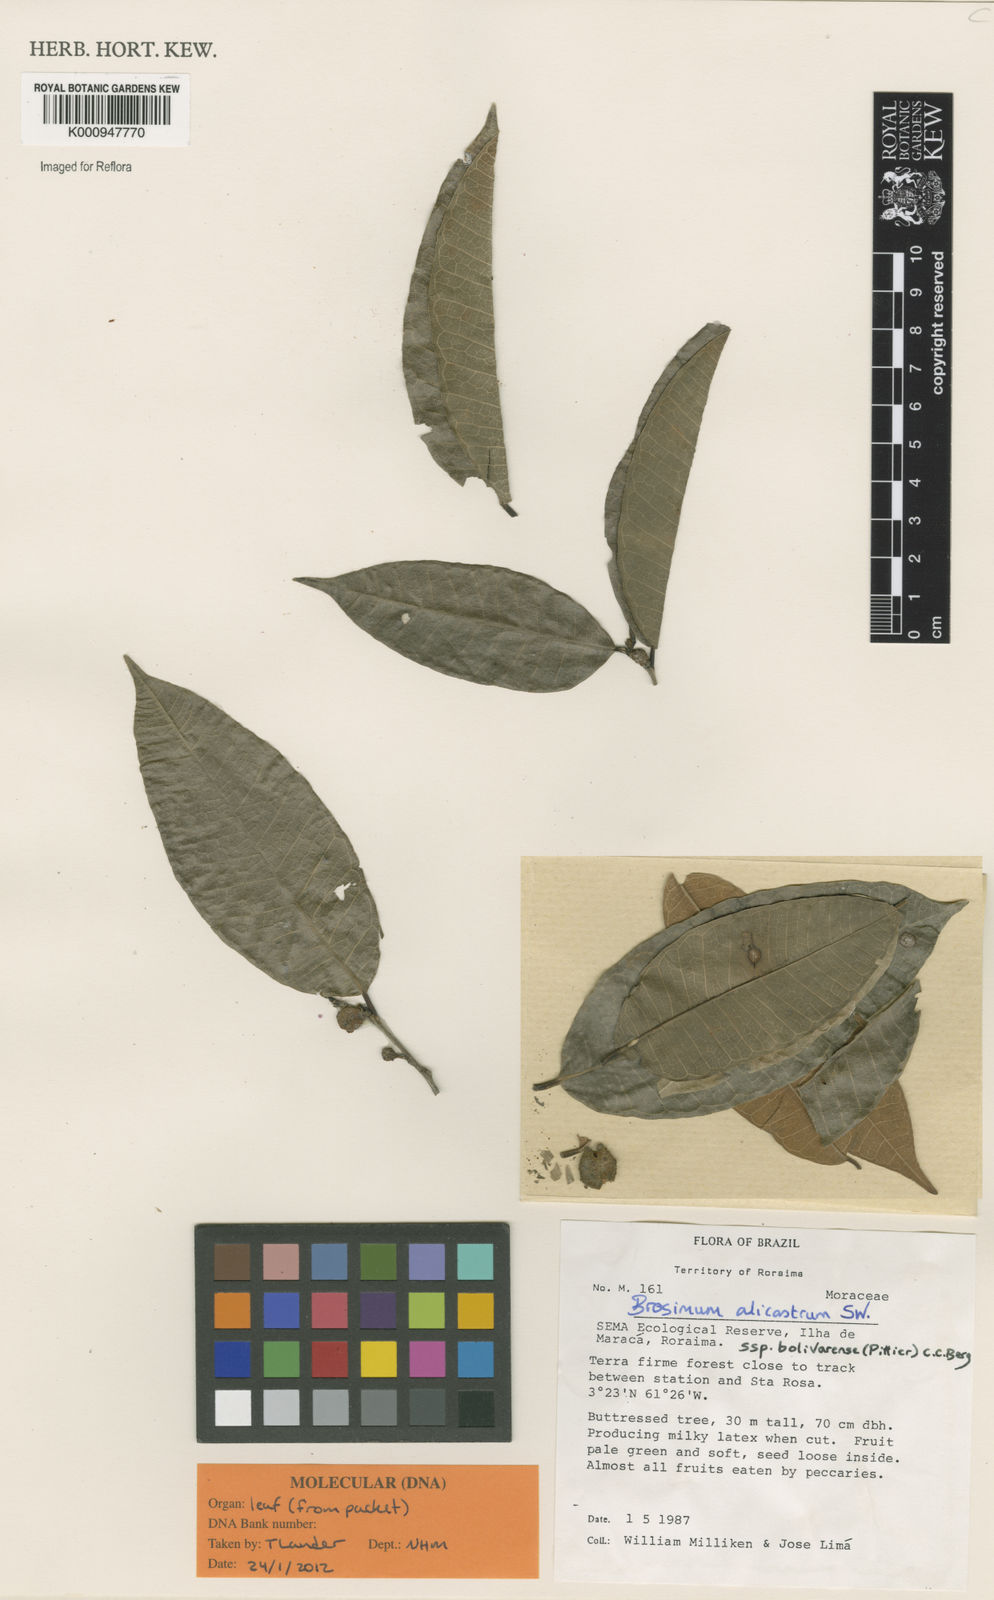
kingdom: Plantae
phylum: Tracheophyta
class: Magnoliopsida
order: Rosales
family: Moraceae
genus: Brosimum
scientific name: Brosimum alicastrum
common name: Breadnut
